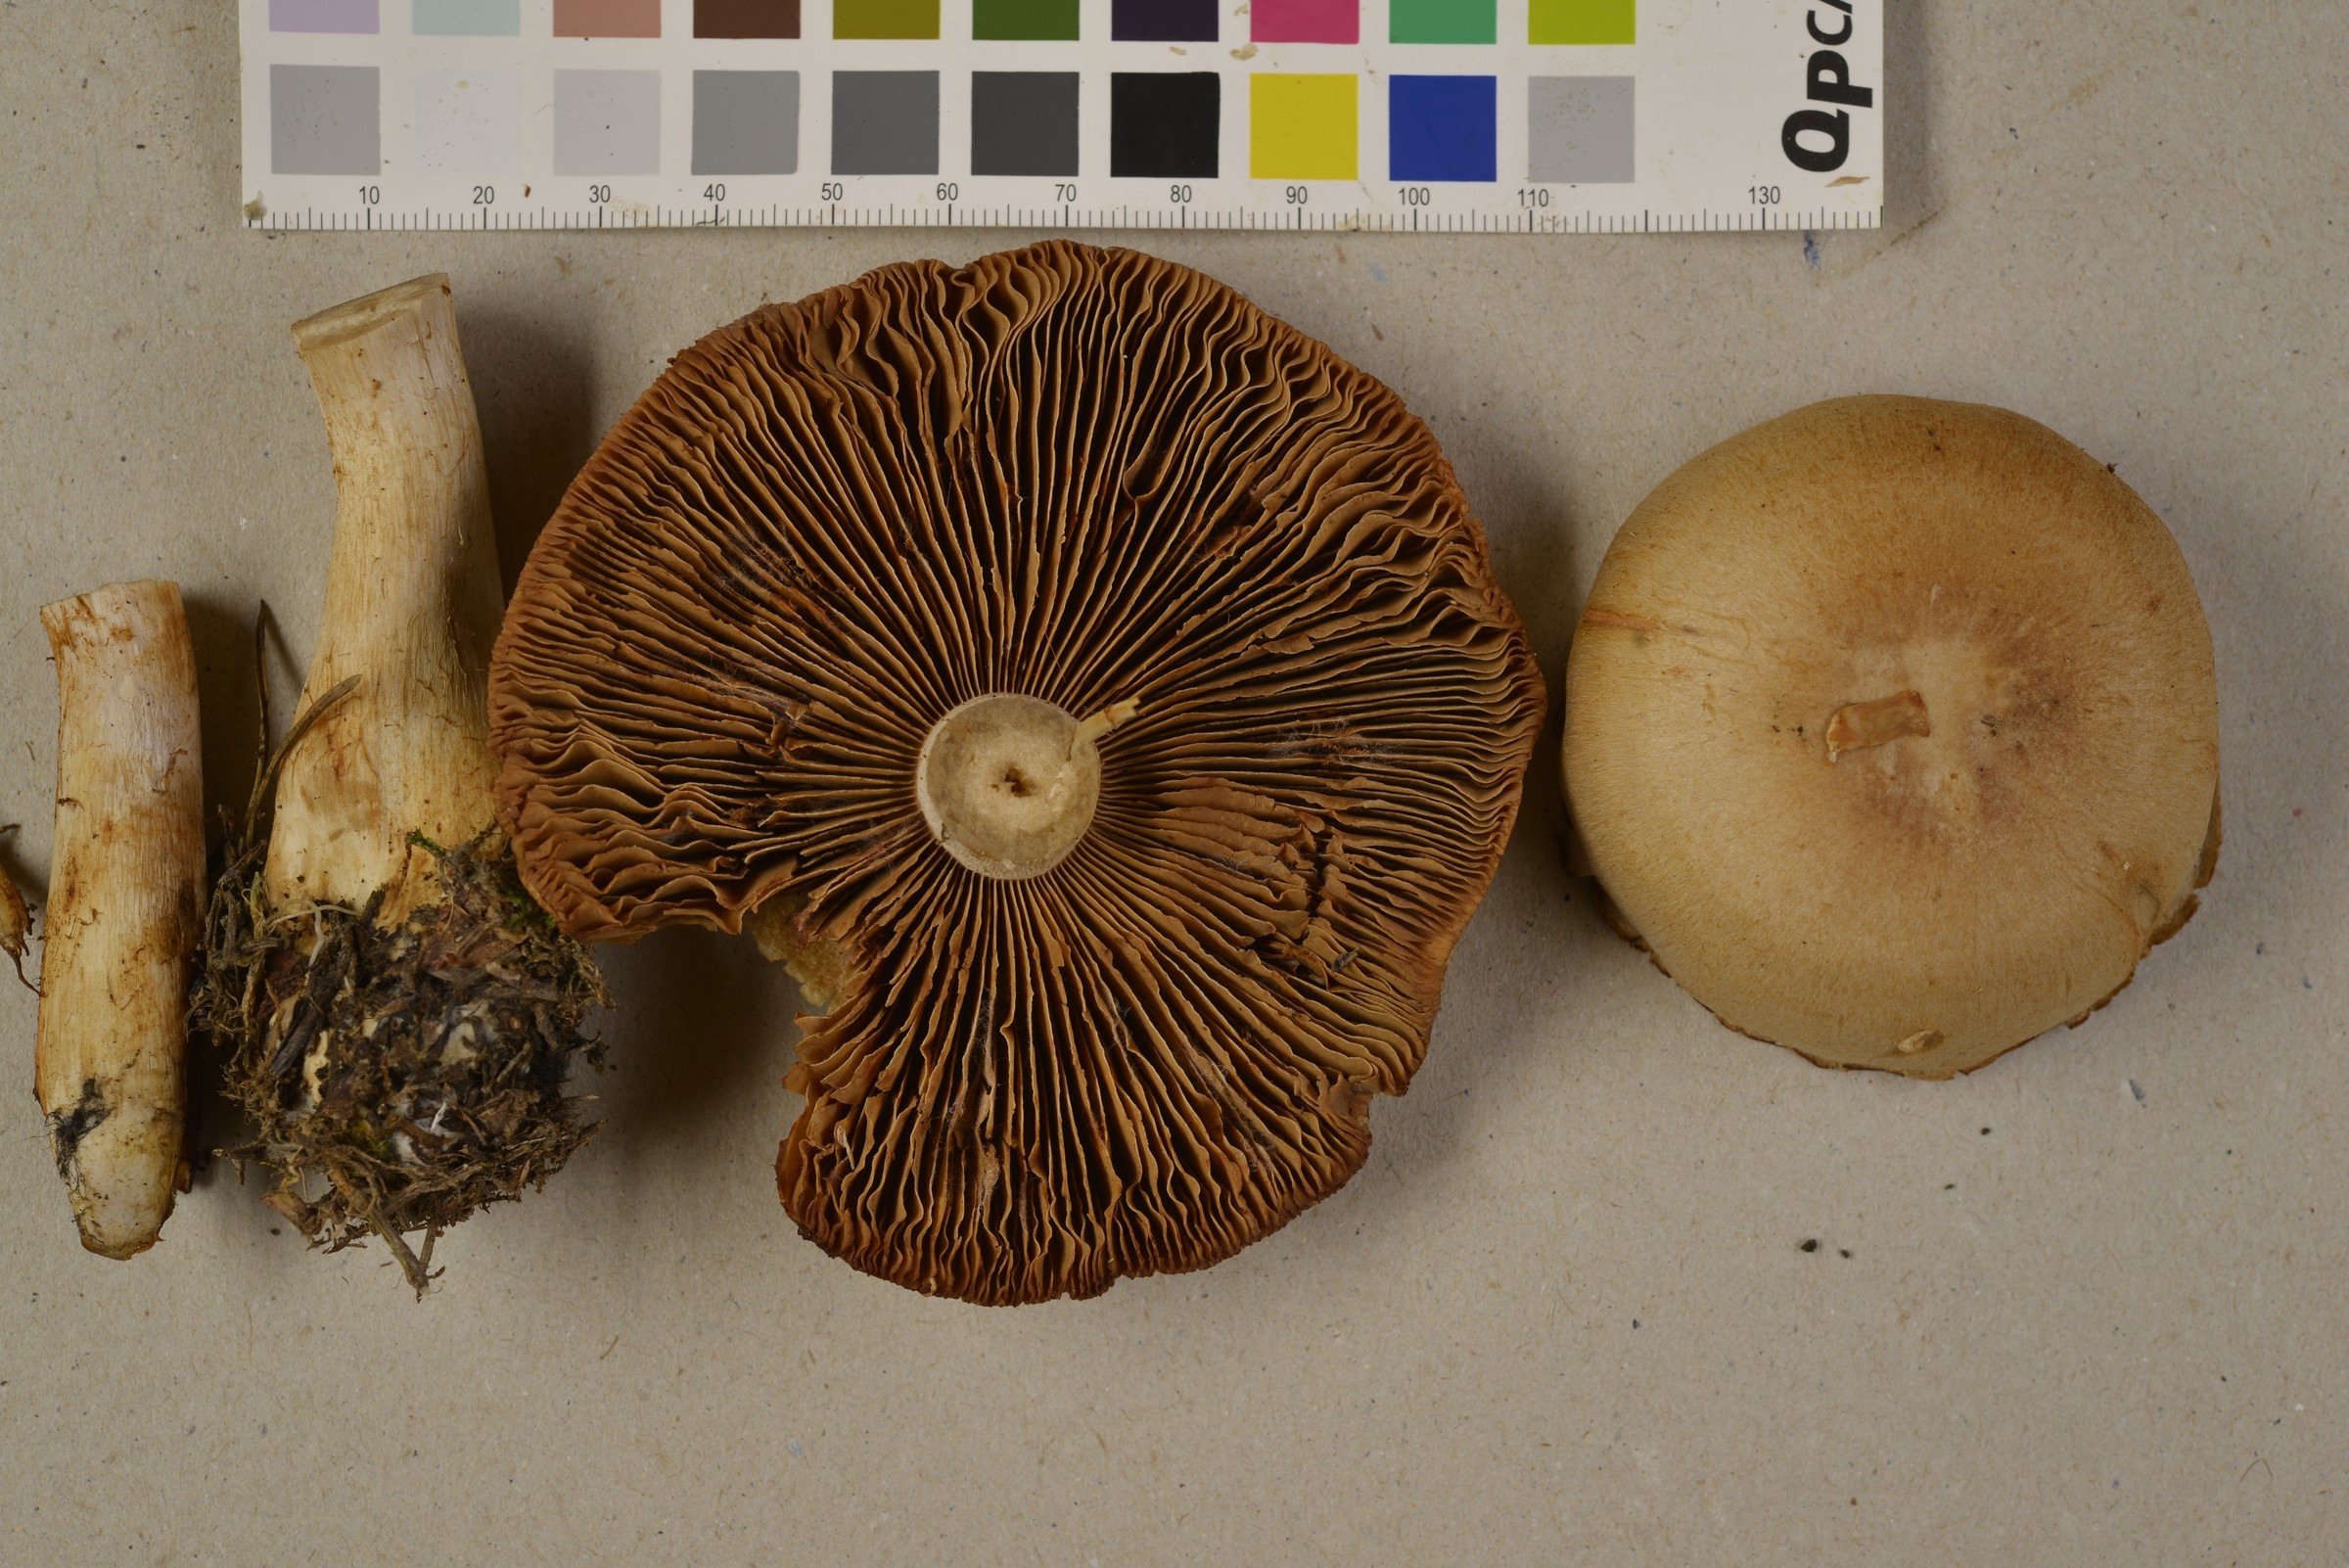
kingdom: Fungi
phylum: Basidiomycota
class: Agaricomycetes
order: Agaricales
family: Cortinariaceae
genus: Cortinarius
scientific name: Cortinarius camphoratus
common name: Goatcheese webcap
